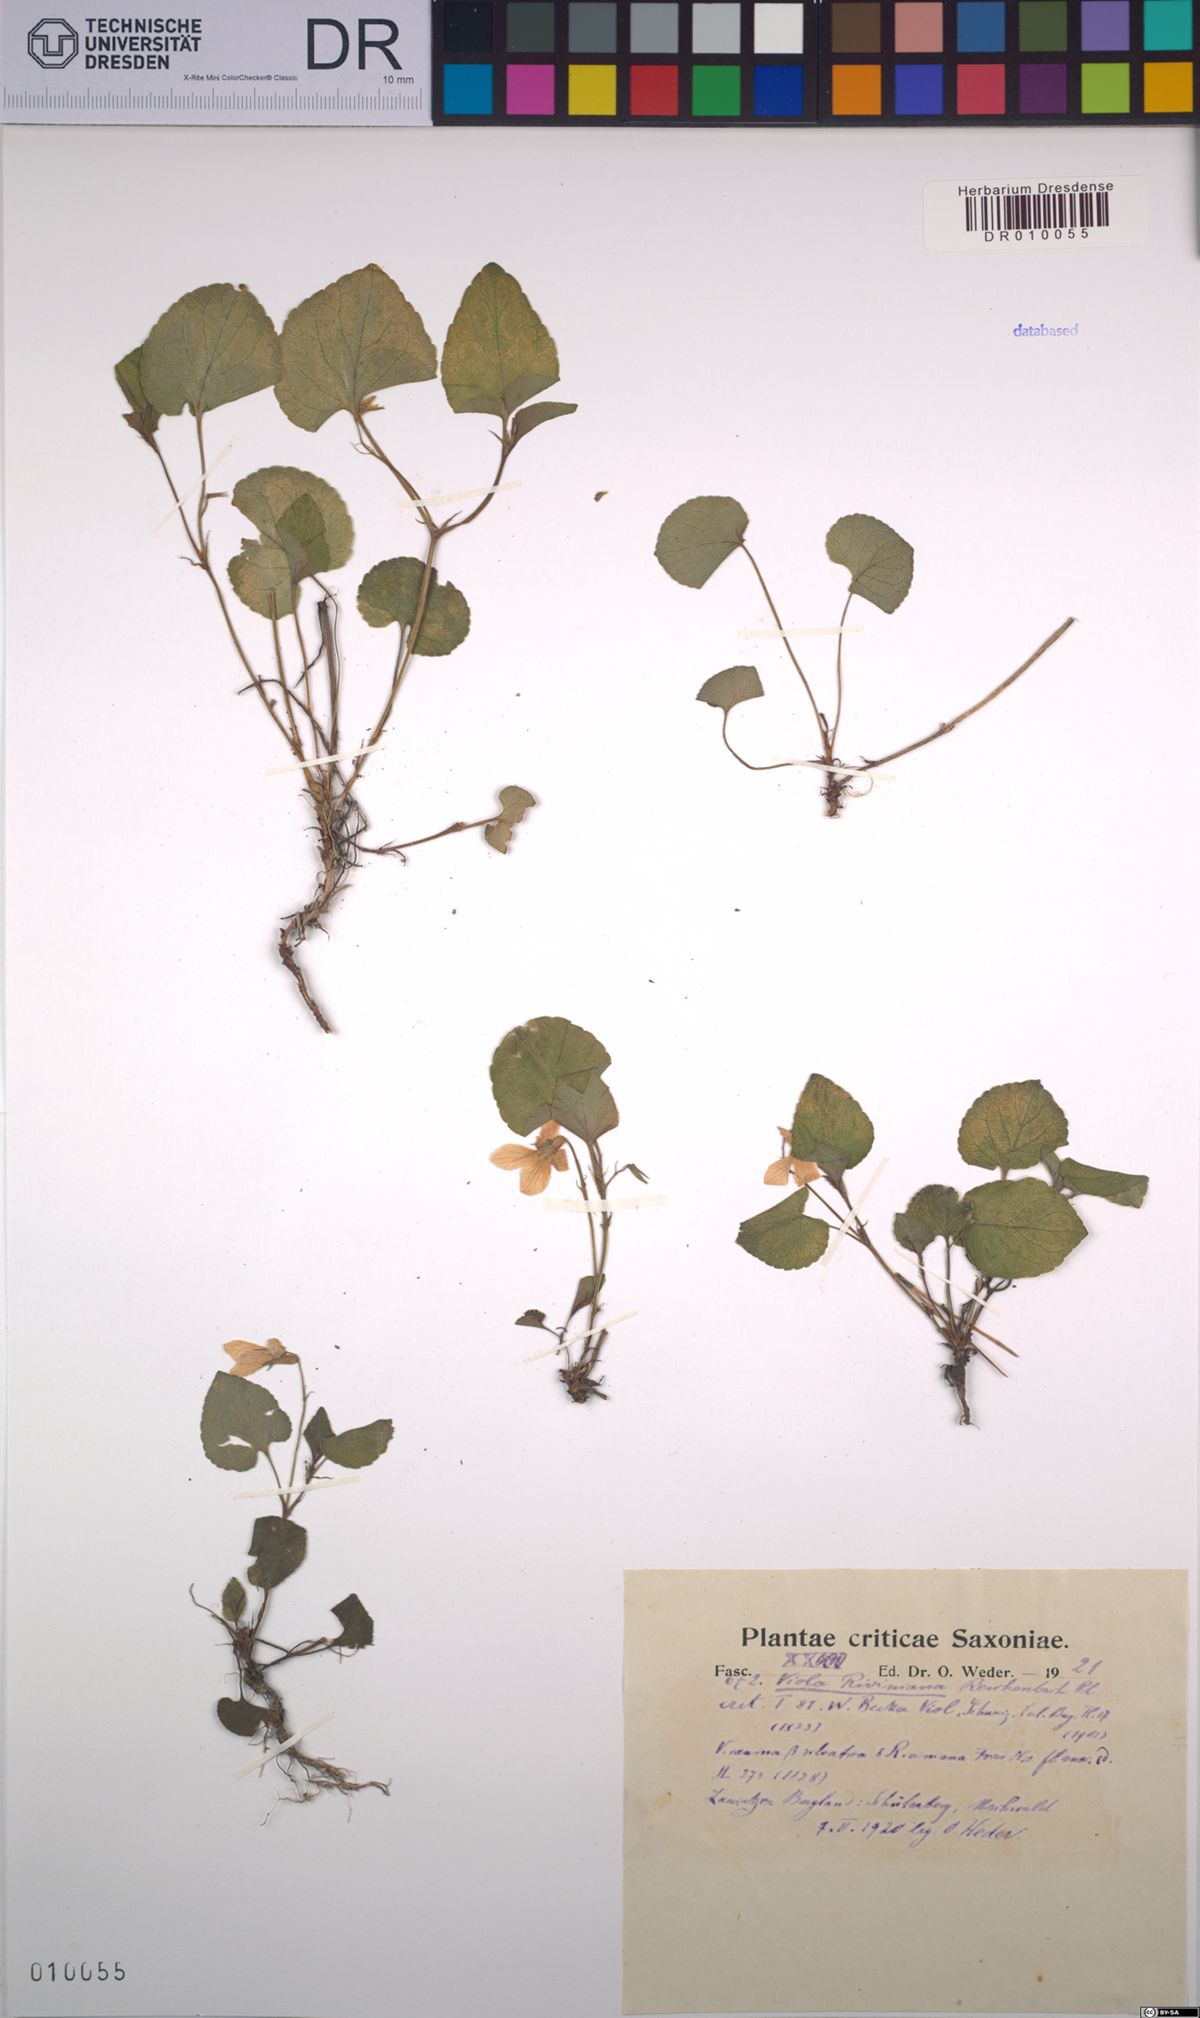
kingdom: Plantae
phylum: Tracheophyta
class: Magnoliopsida
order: Malpighiales
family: Violaceae
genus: Viola
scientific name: Viola riviniana
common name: Common dog-violet
